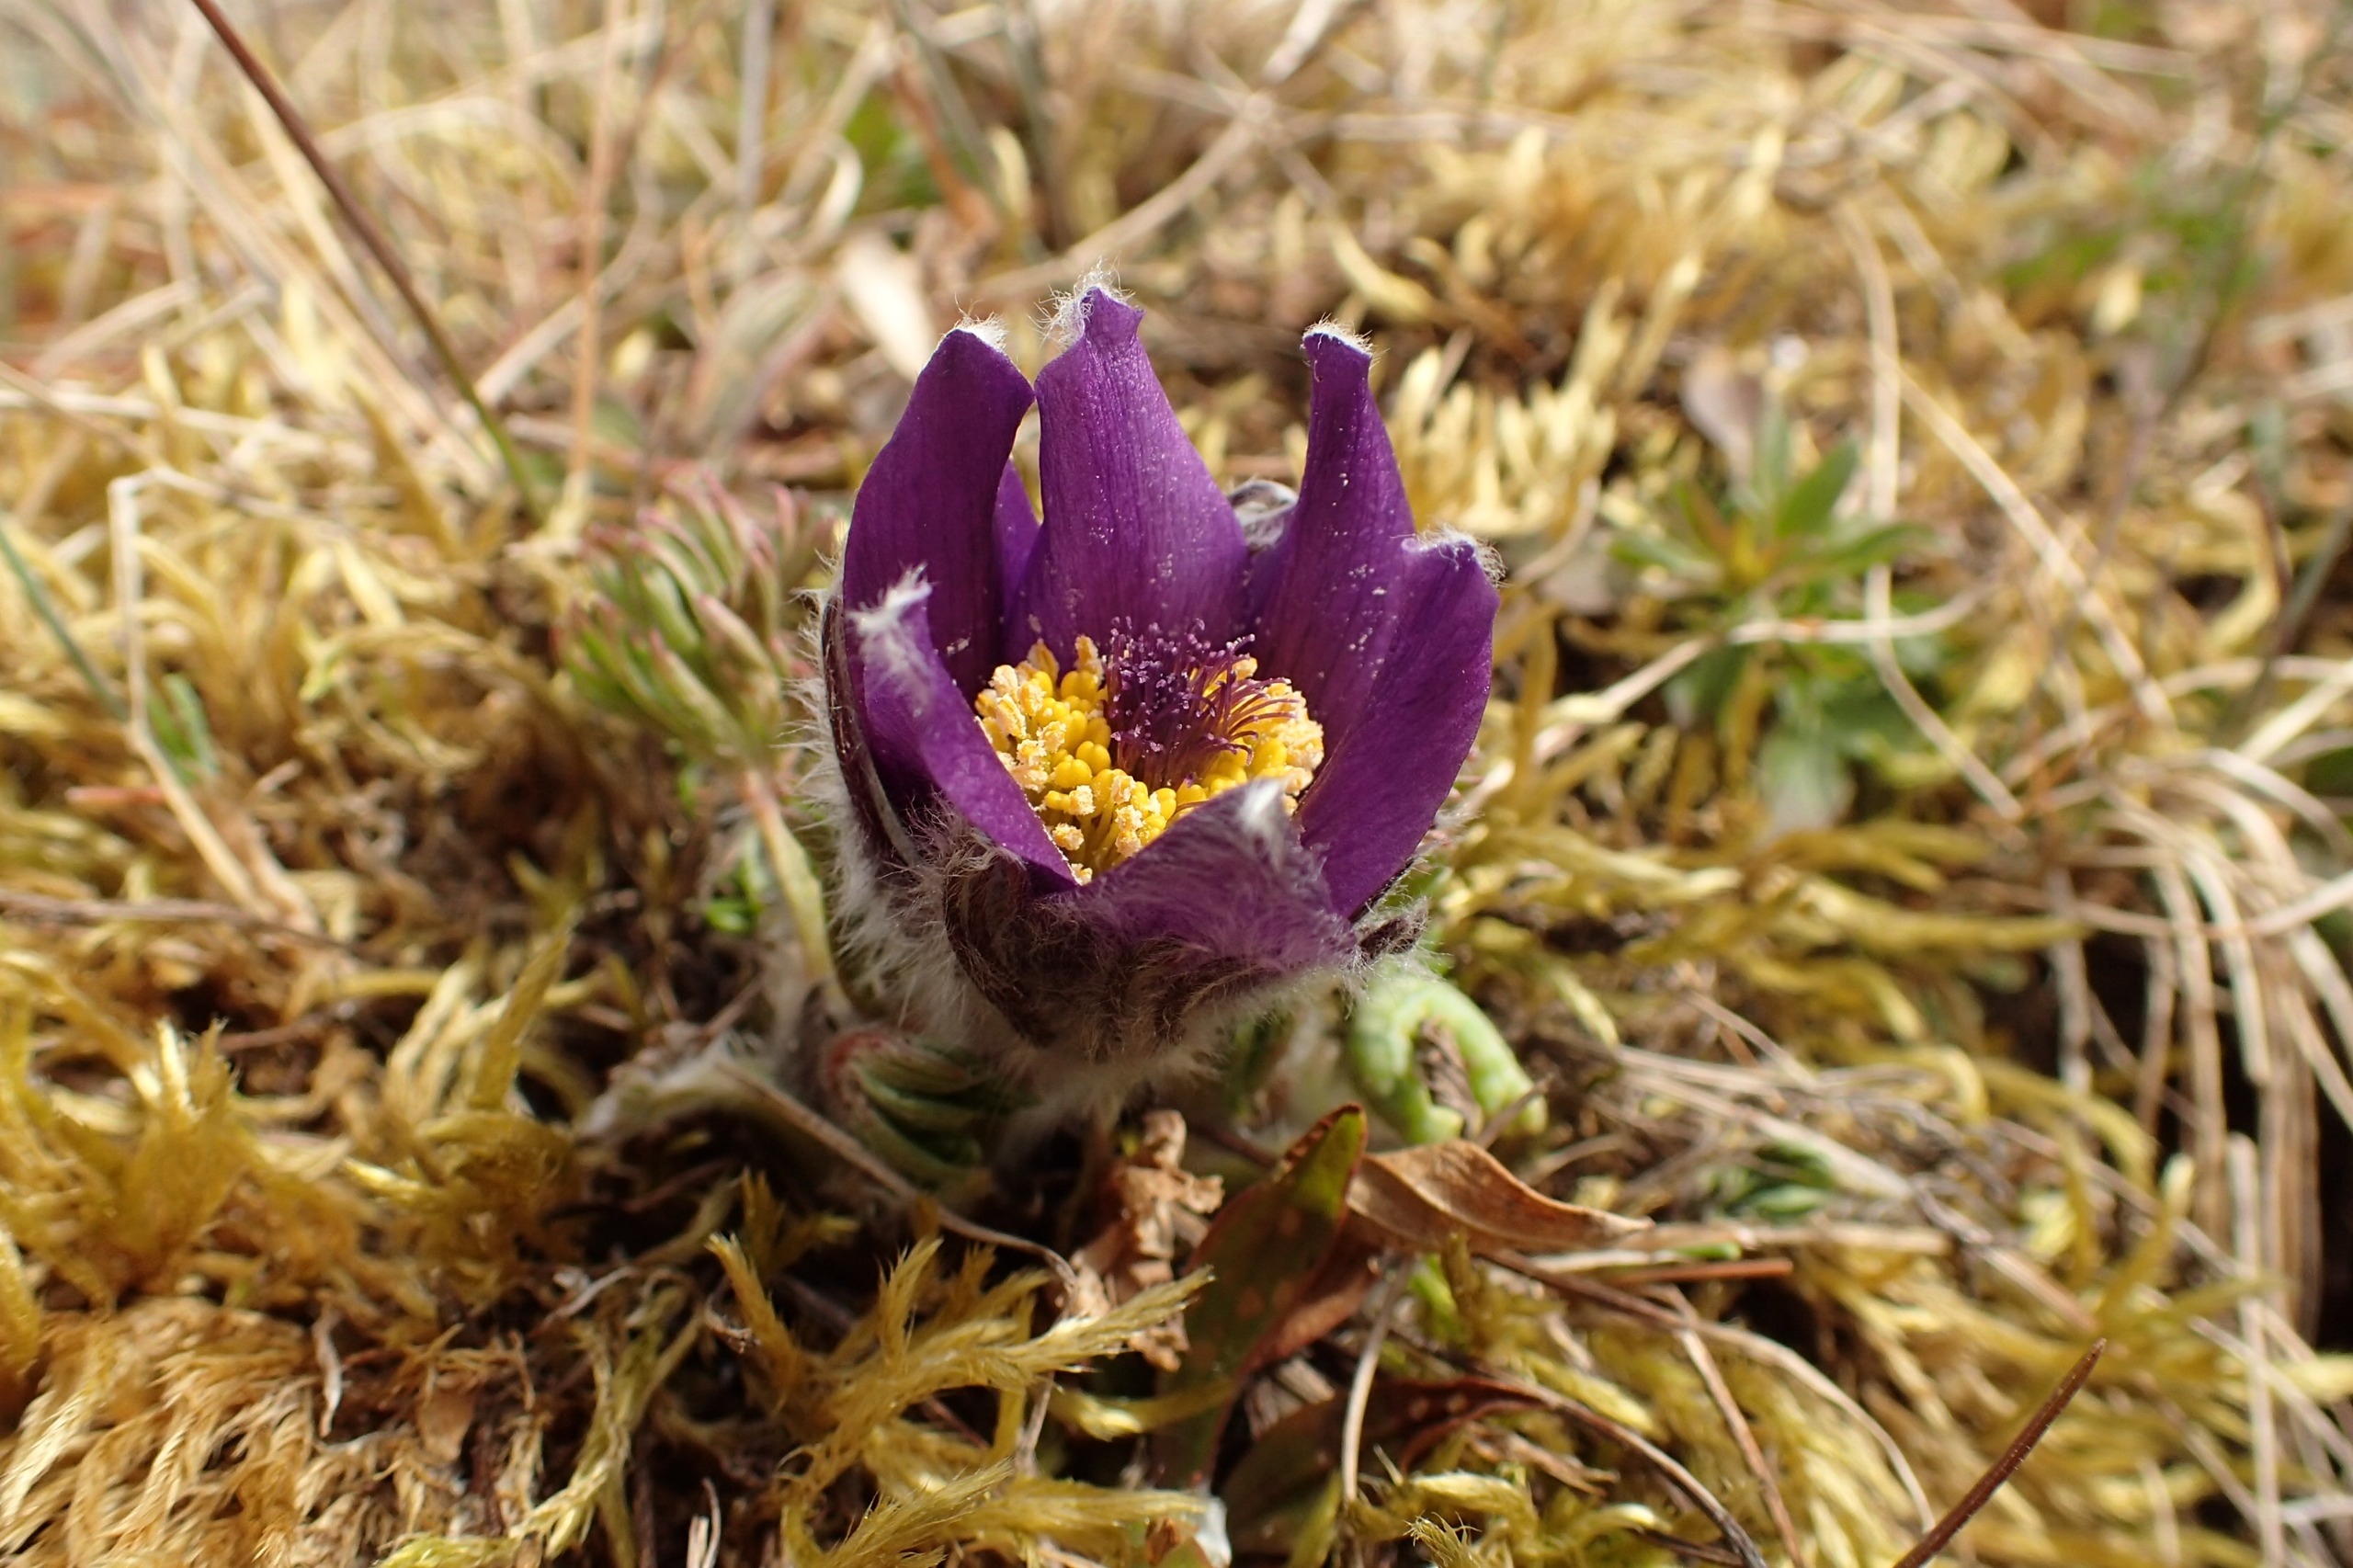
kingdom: Plantae
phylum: Tracheophyta
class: Magnoliopsida
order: Ranunculales
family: Ranunculaceae
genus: Pulsatilla
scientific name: Pulsatilla vulgaris
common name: Opret kobjælde
